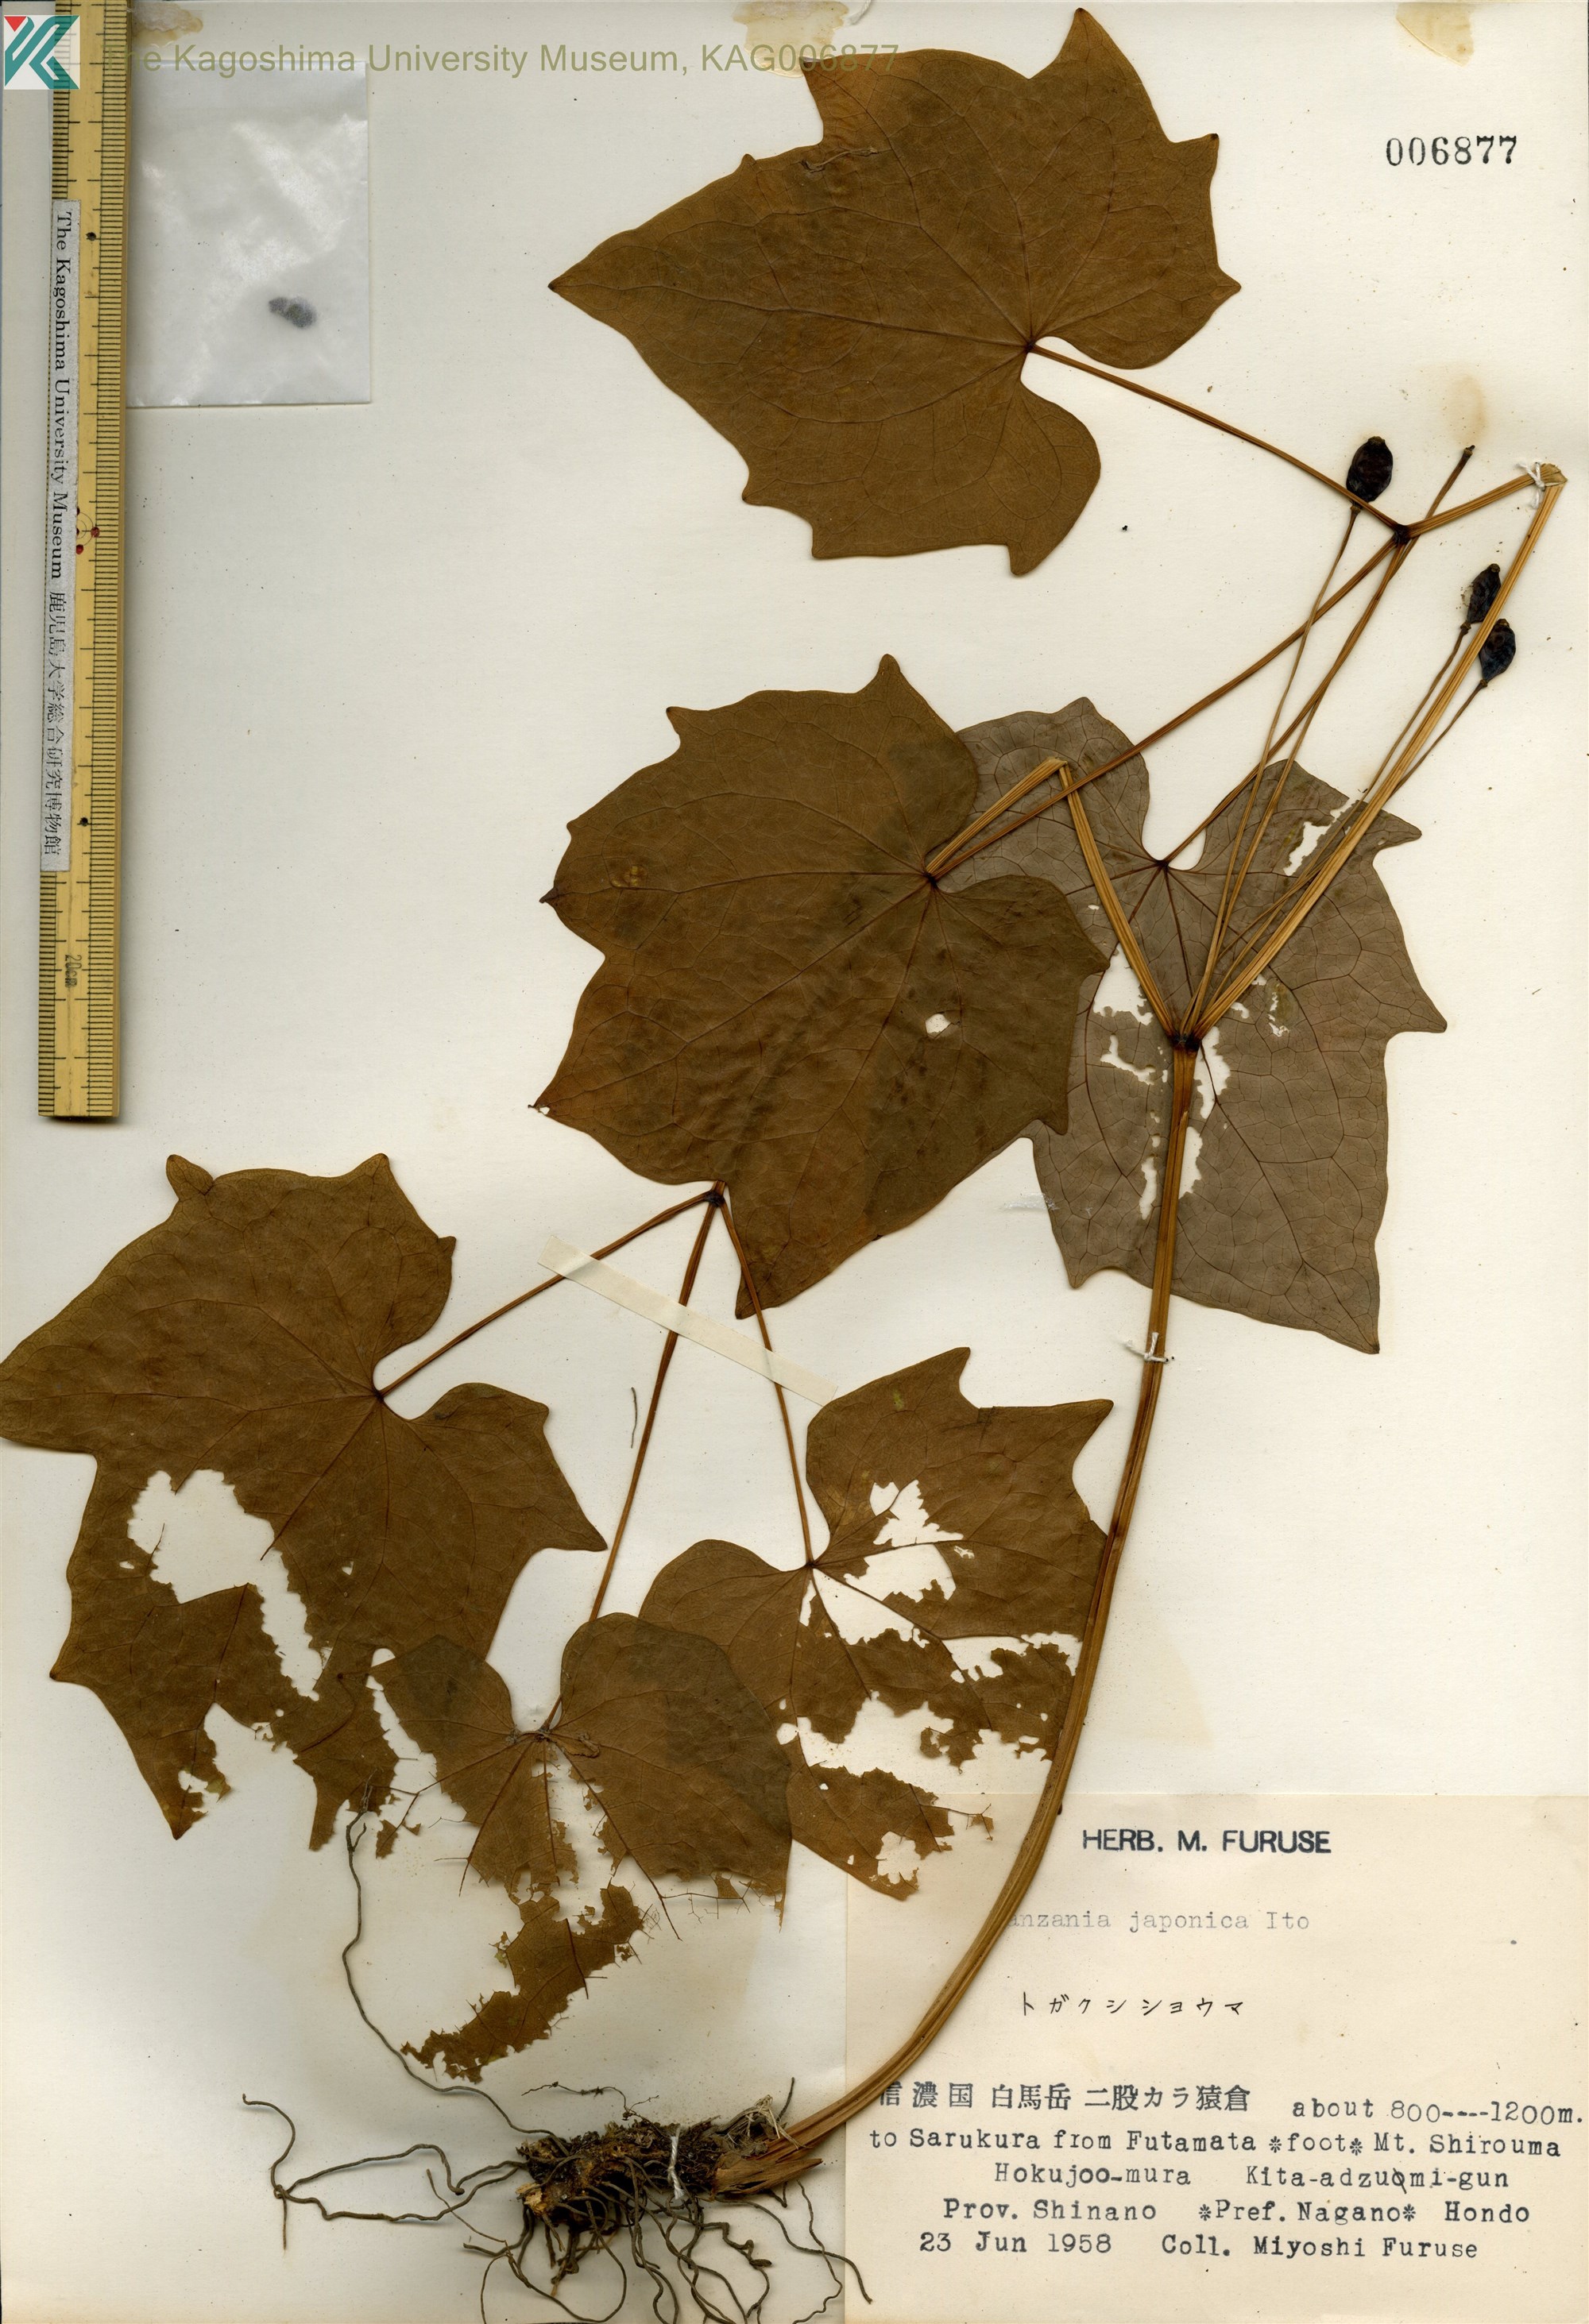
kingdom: Plantae
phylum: Tracheophyta
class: Magnoliopsida
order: Ranunculales
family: Berberidaceae
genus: Ranzania
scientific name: Ranzania japonica
